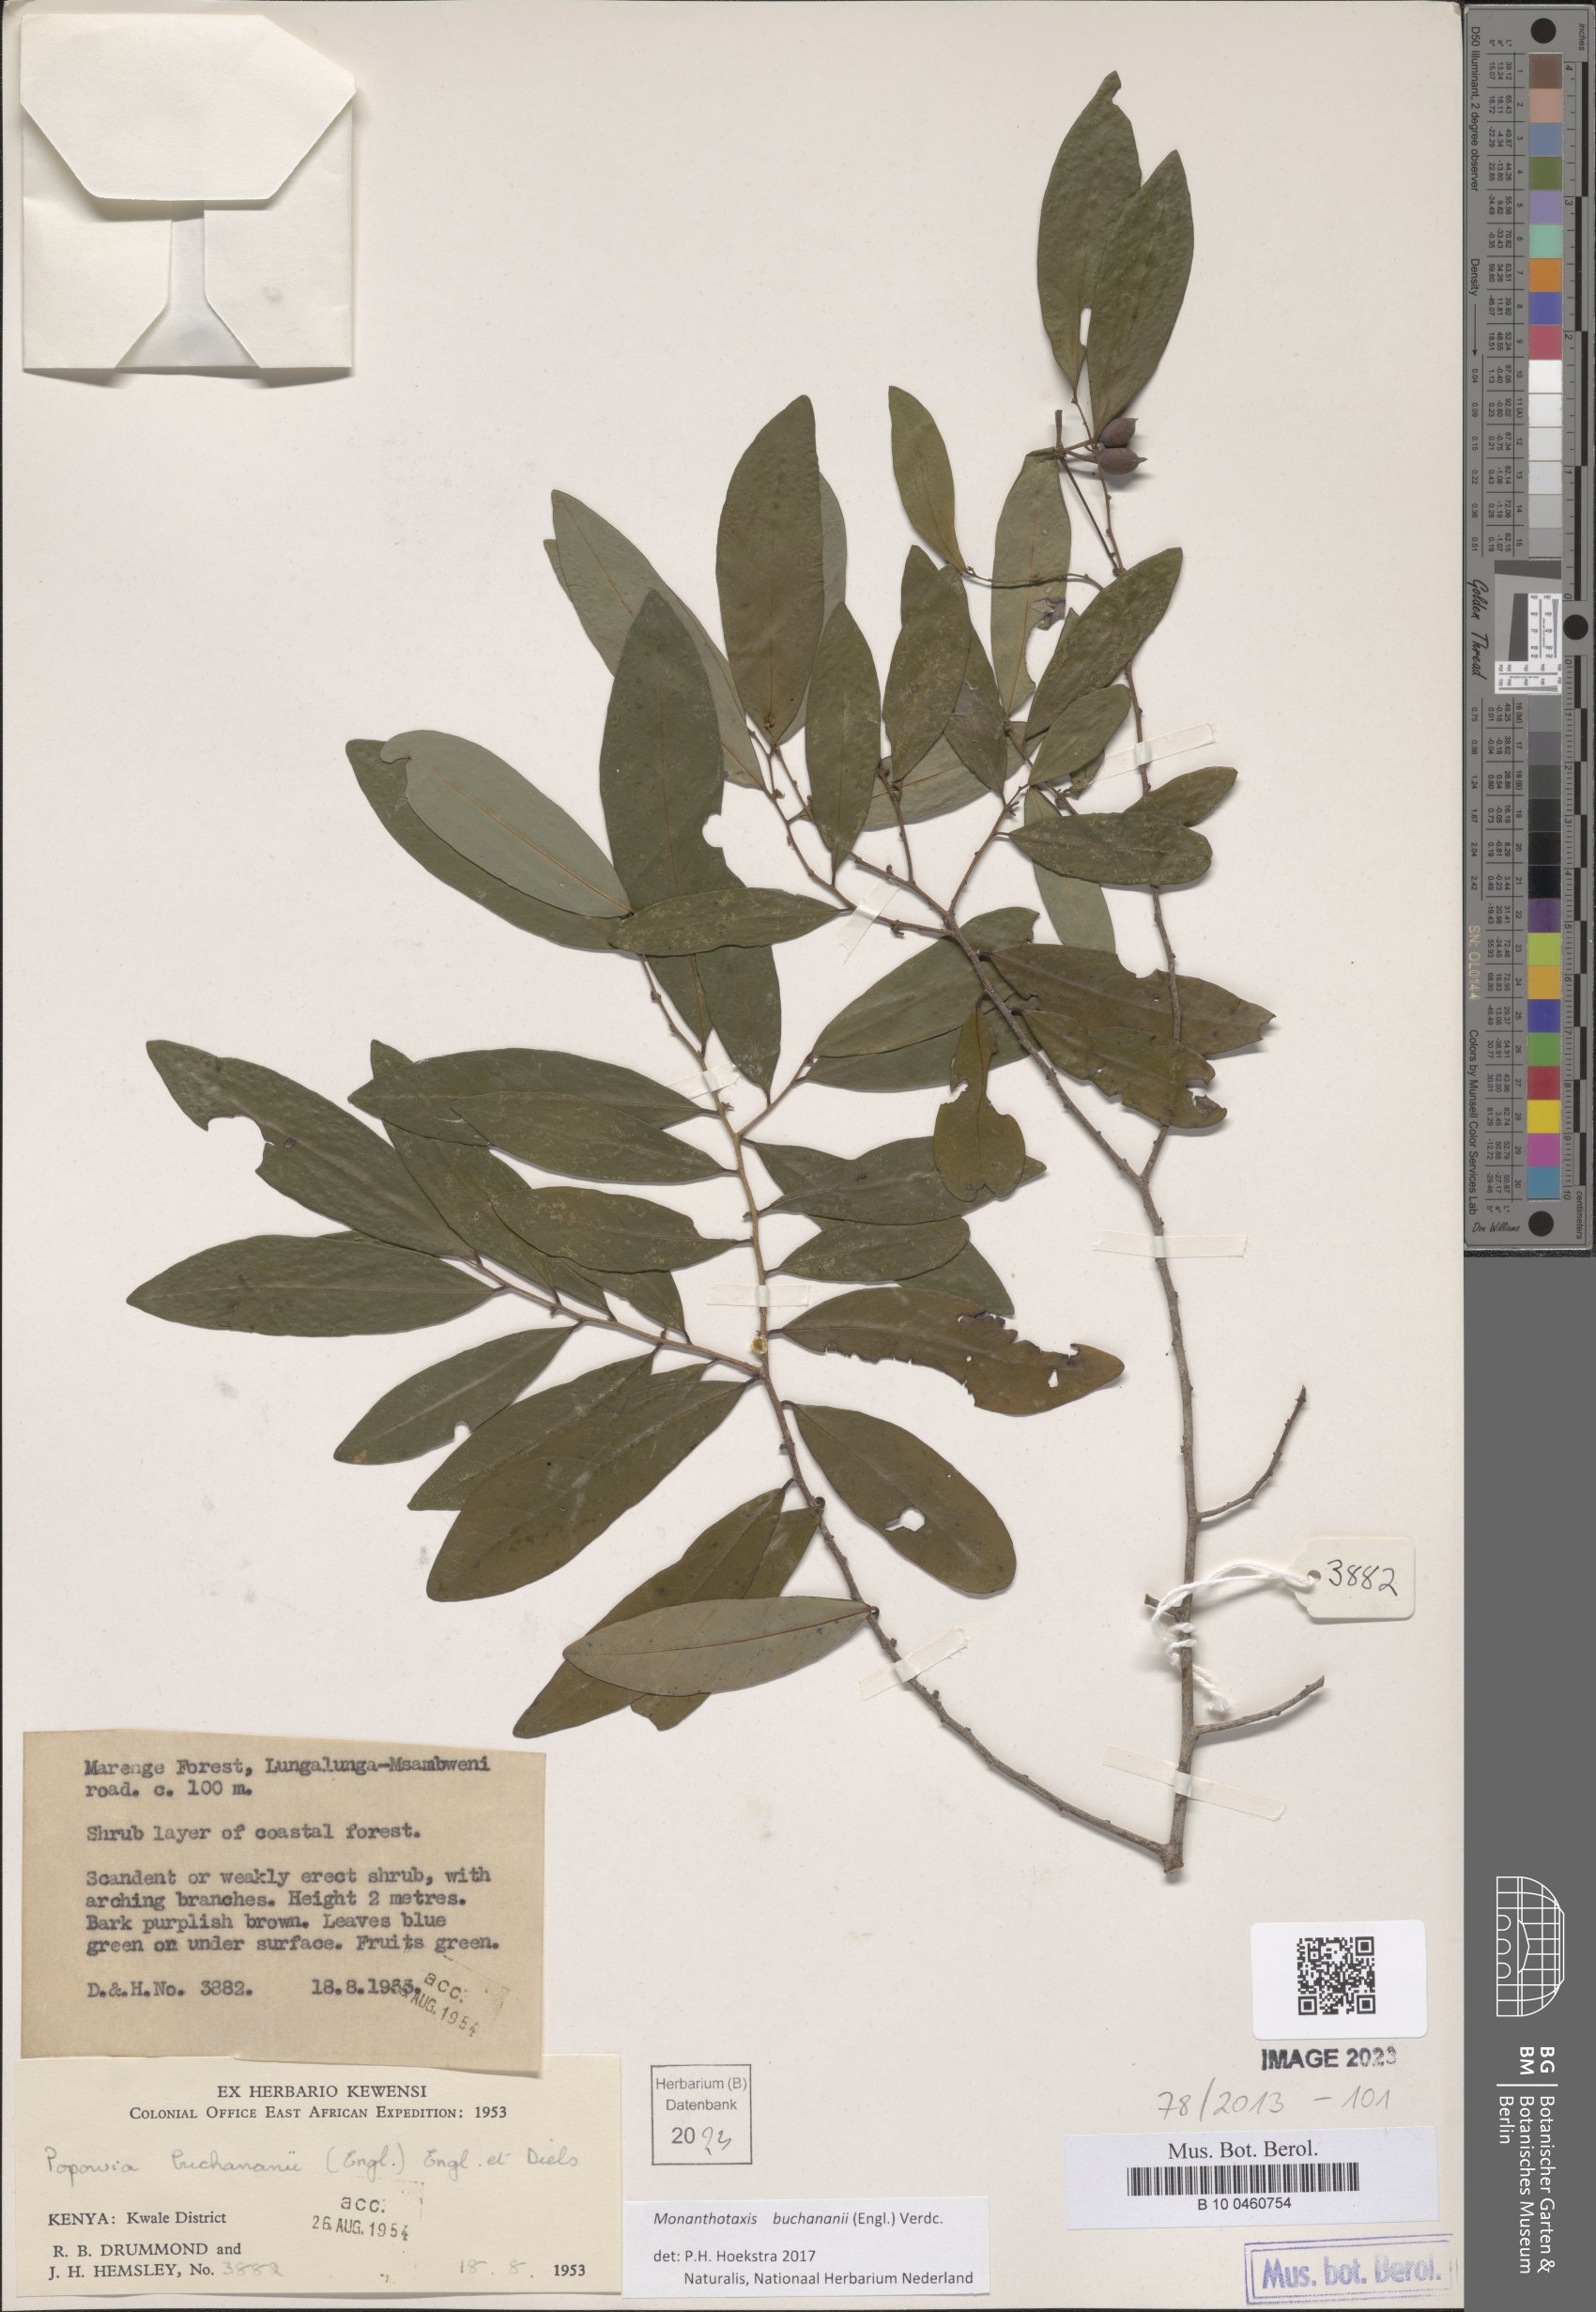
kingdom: Plantae
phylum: Tracheophyta
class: Magnoliopsida
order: Magnoliales
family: Annonaceae
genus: Monanthotaxis
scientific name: Monanthotaxis buchananii
